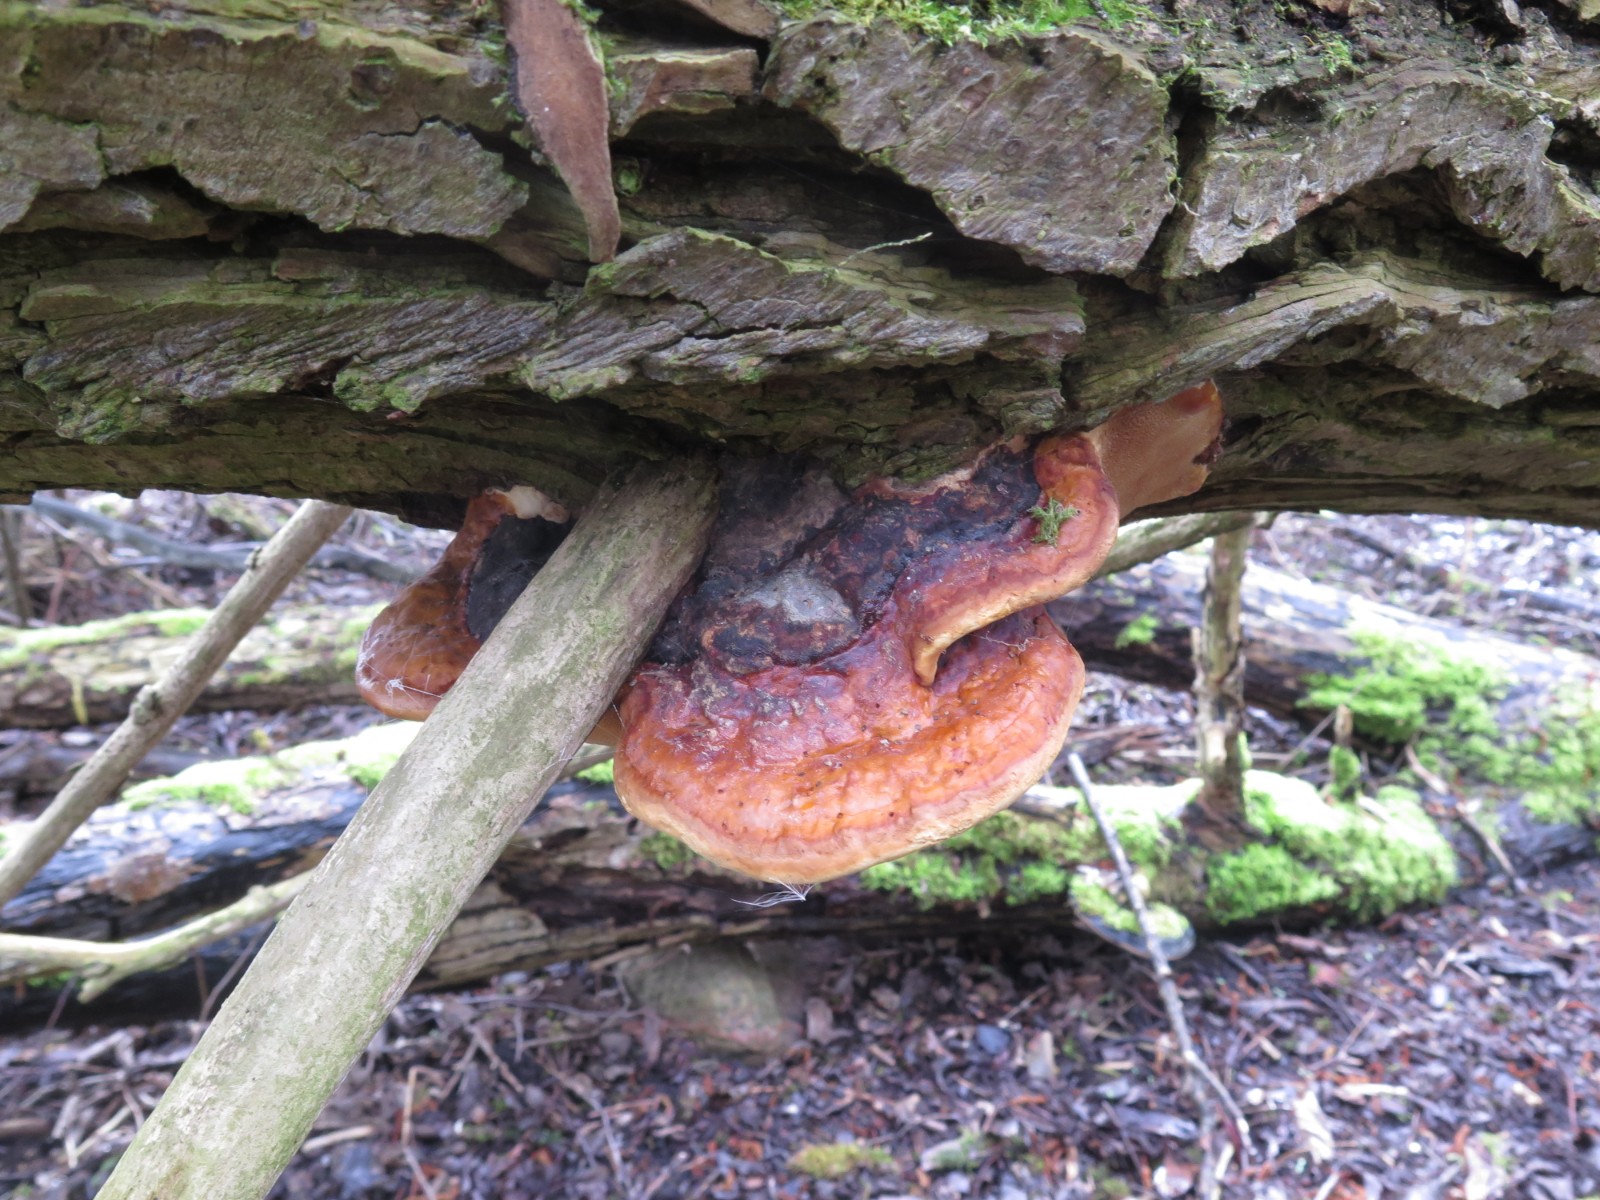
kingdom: Fungi
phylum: Basidiomycota
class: Agaricomycetes
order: Polyporales
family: Fomitopsidaceae
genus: Fomitopsis
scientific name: Fomitopsis pinicola
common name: randbæltet hovporesvamp
